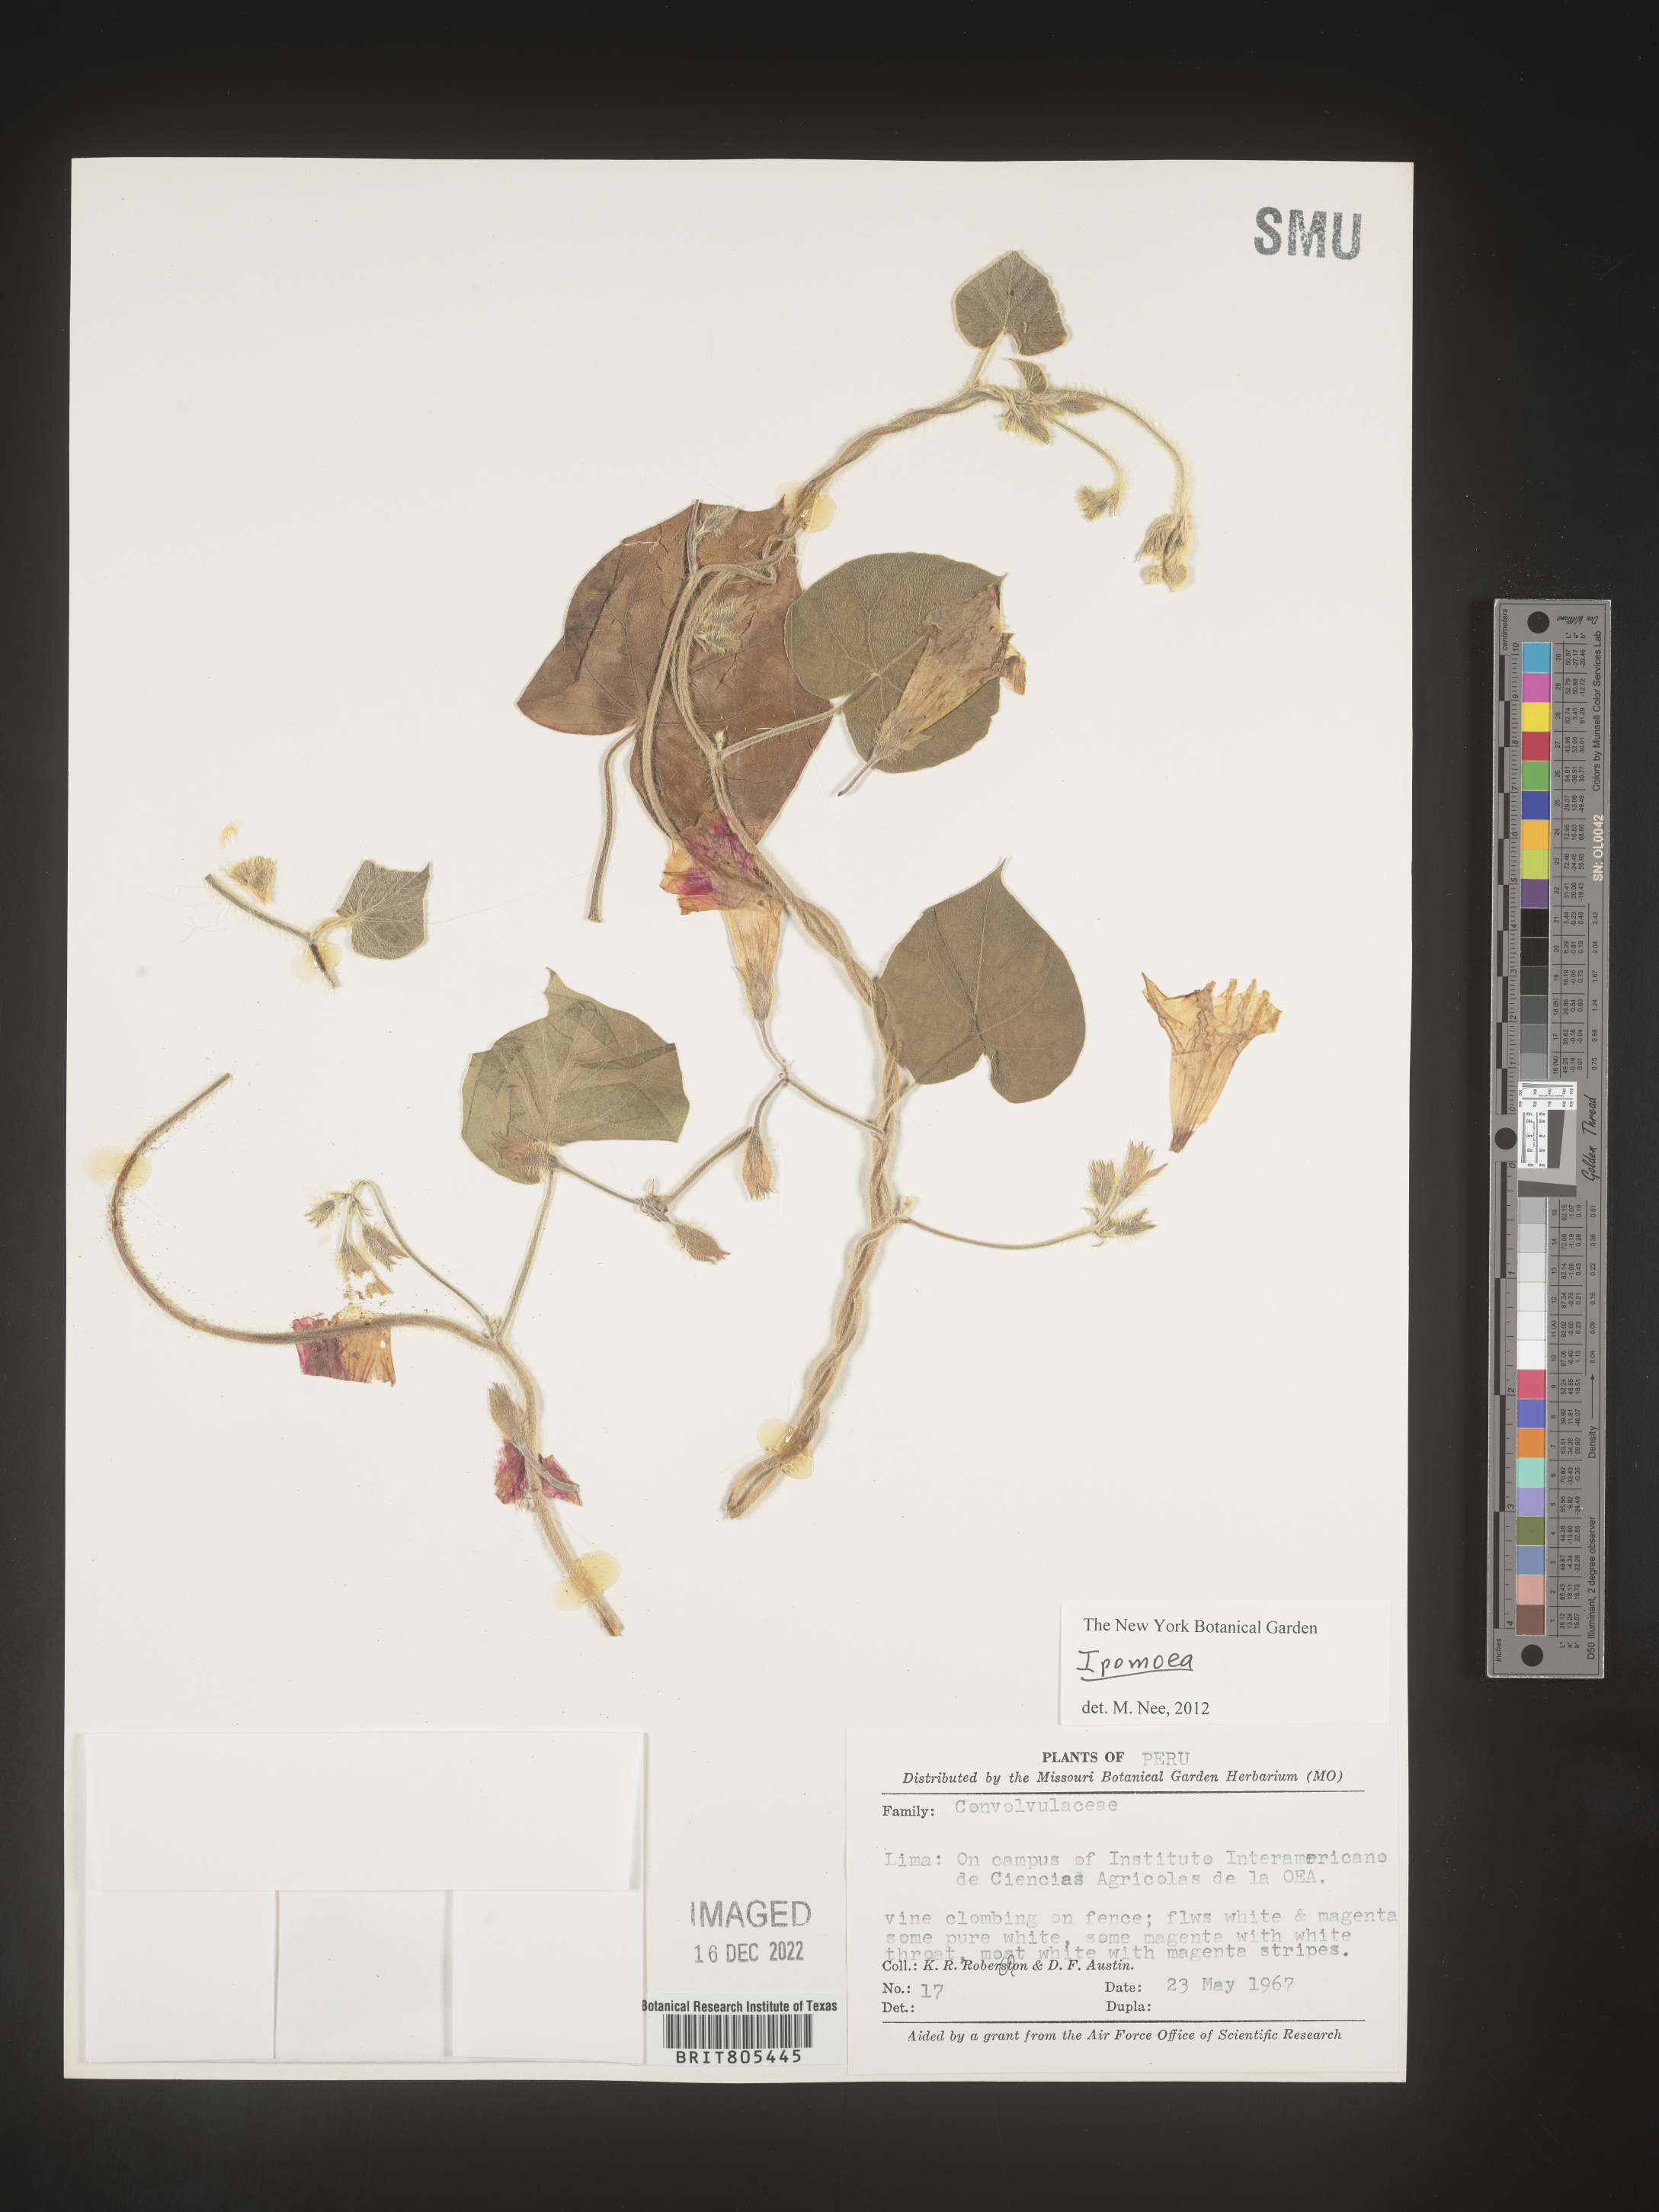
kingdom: Plantae
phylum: Tracheophyta
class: Magnoliopsida
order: Solanales
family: Convolvulaceae
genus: Ipomoea
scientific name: Ipomoea
